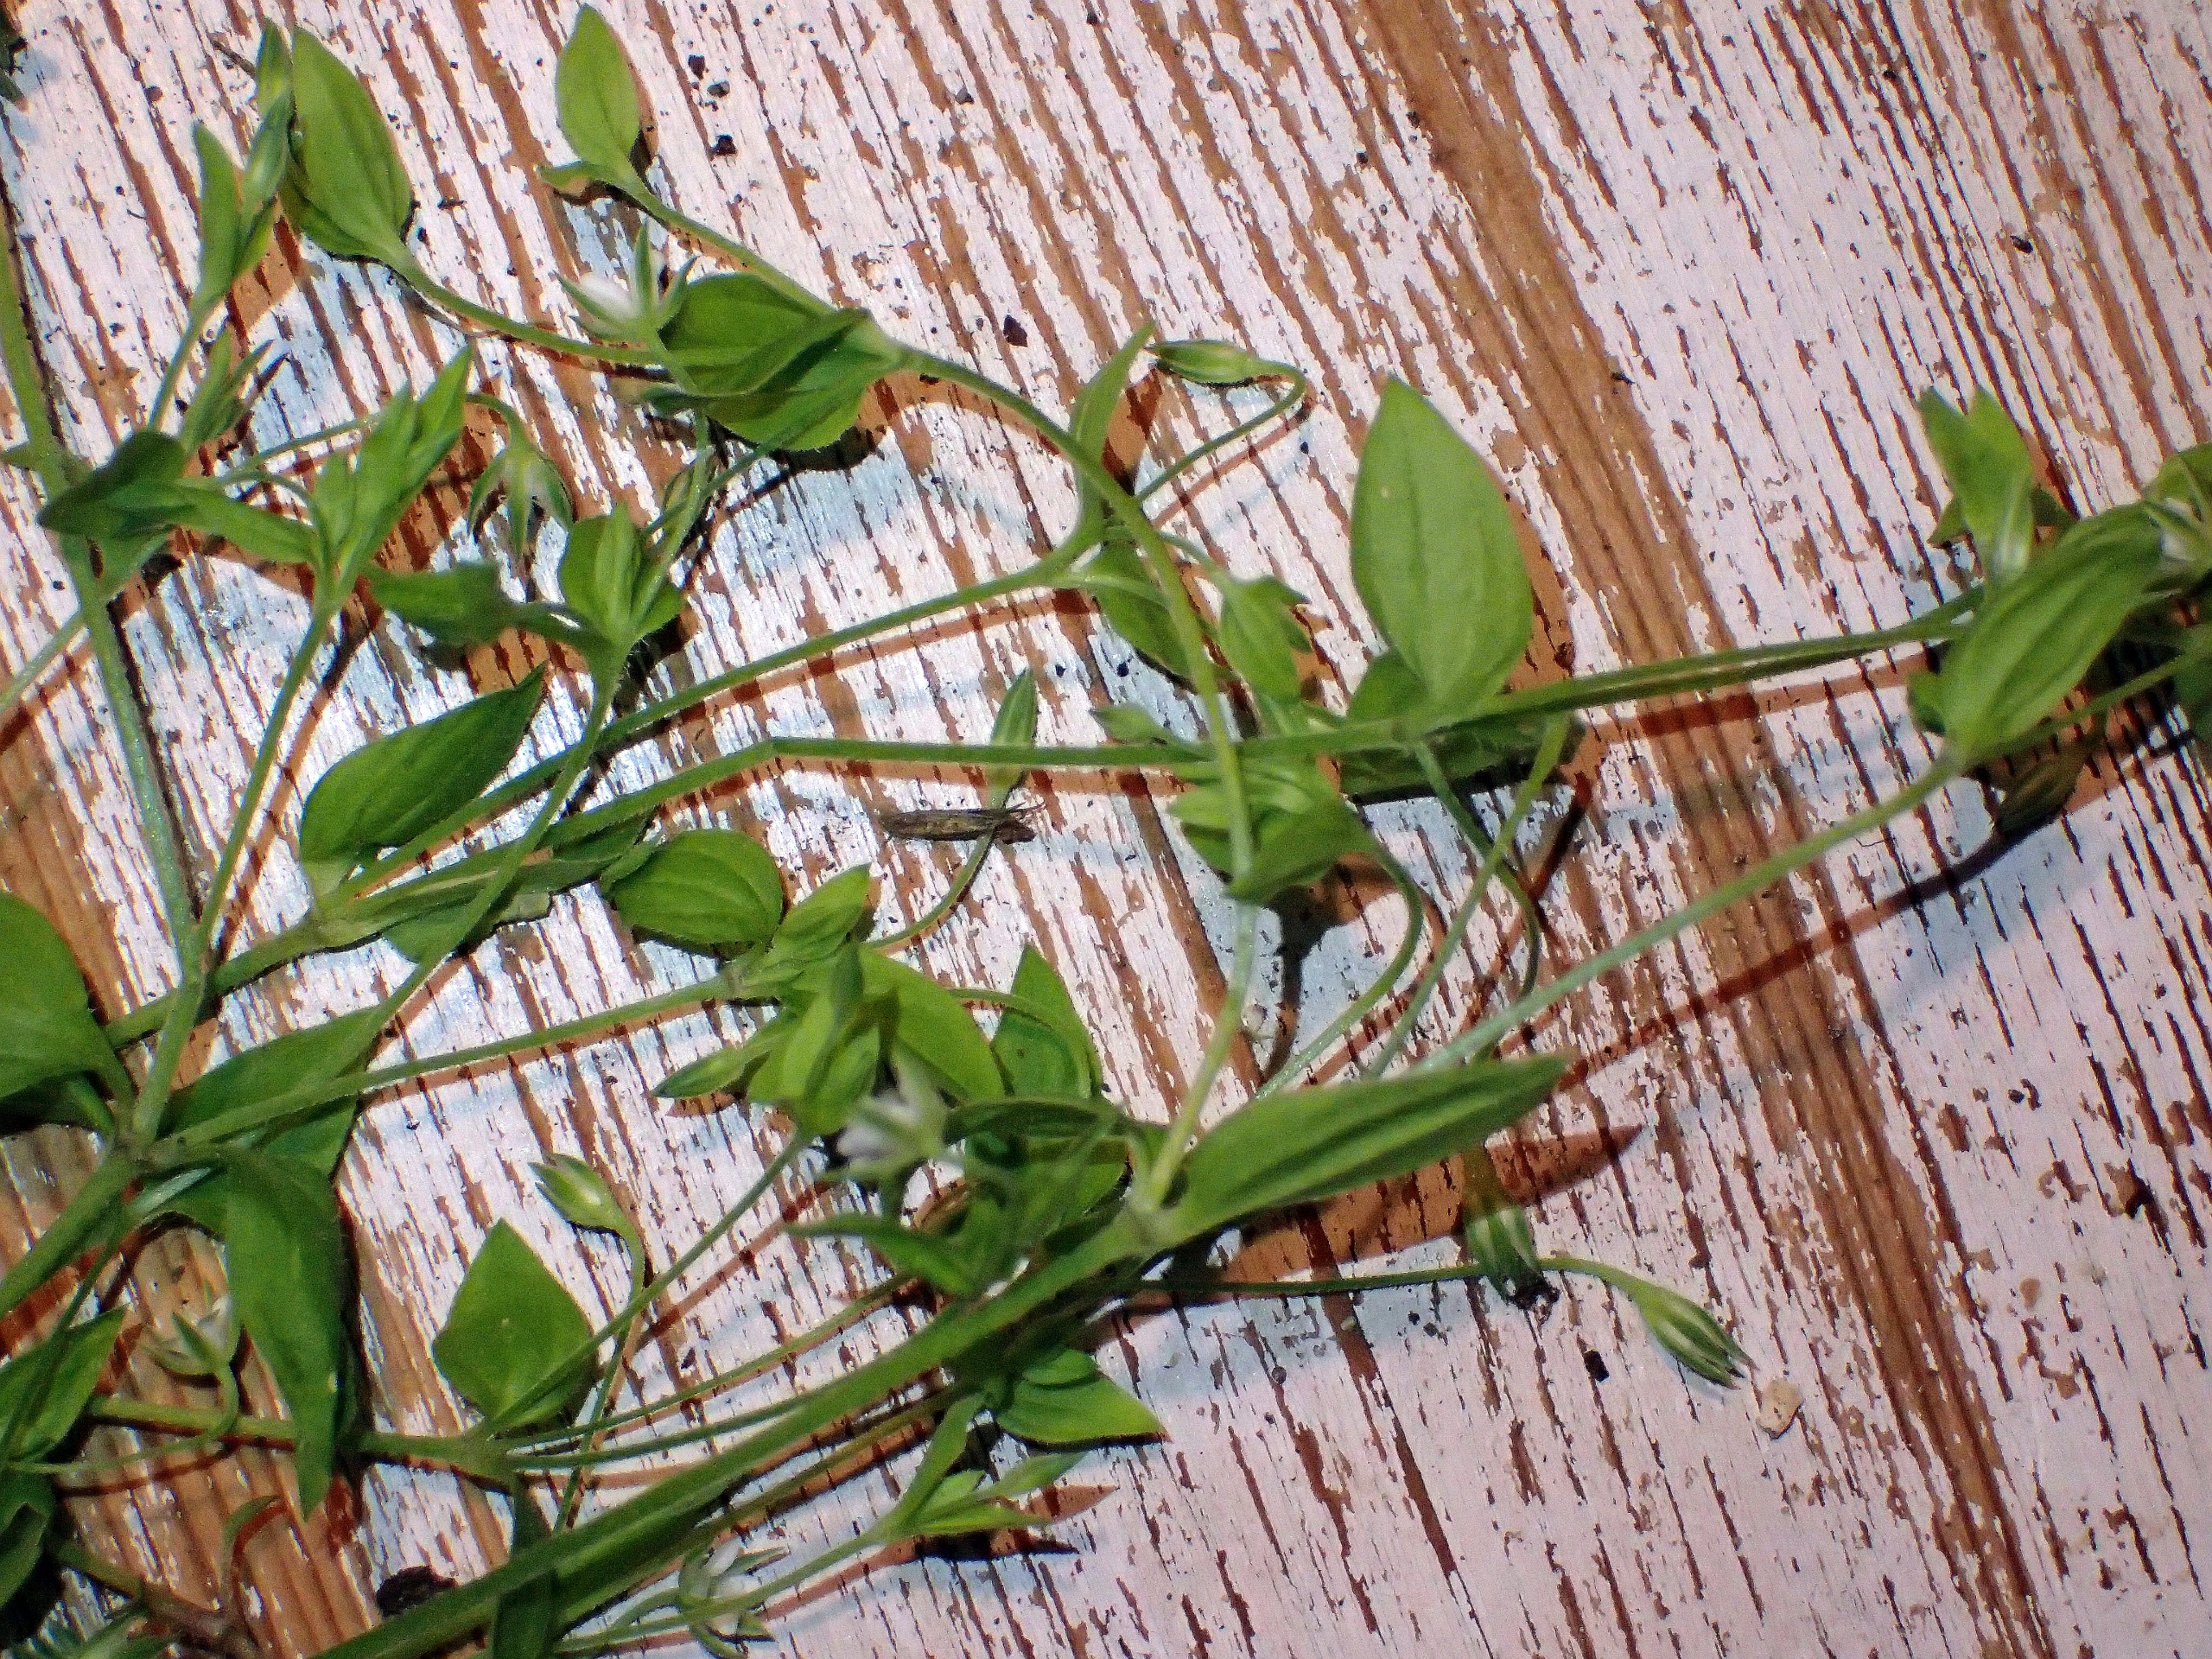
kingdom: Plantae
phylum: Tracheophyta
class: Magnoliopsida
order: Caryophyllales
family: Caryophyllaceae
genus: Moehringia
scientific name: Moehringia trinervia
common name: Skovarve
